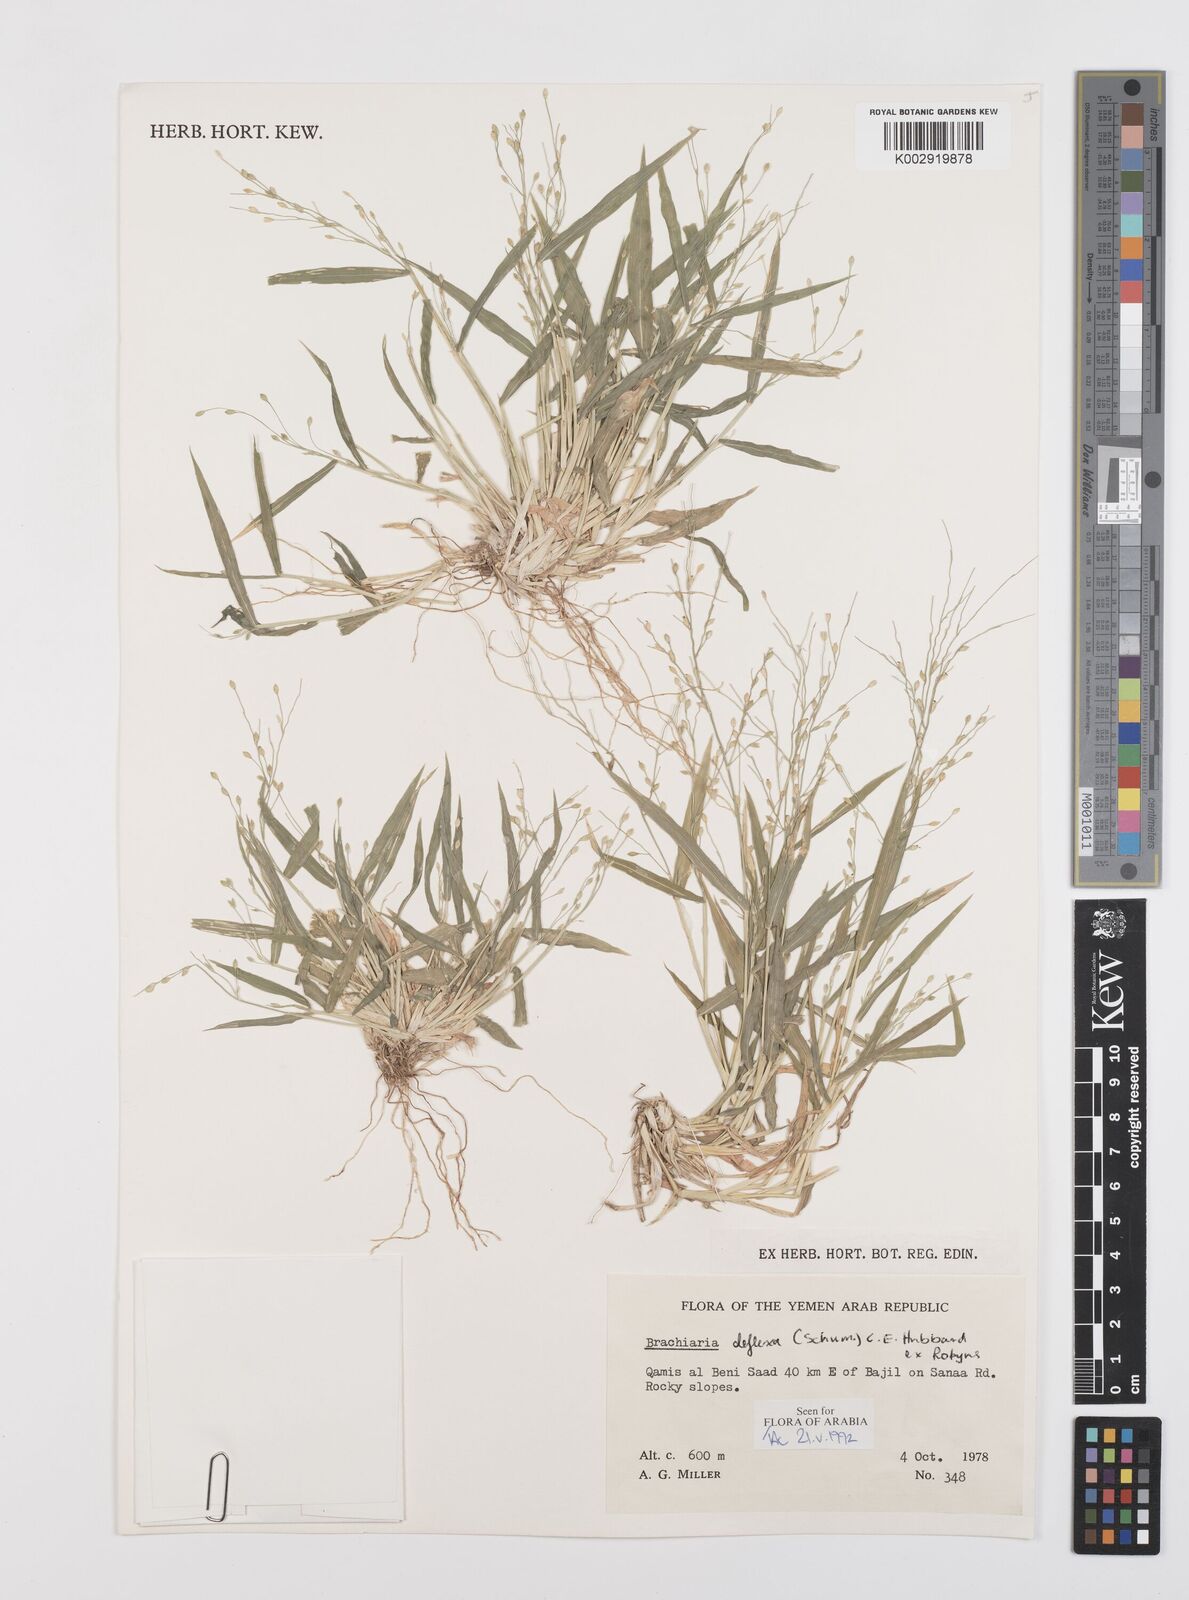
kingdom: Plantae
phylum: Tracheophyta
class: Liliopsida
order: Poales
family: Poaceae
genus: Urochloa
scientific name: Urochloa deflexa
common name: Guinea millet
